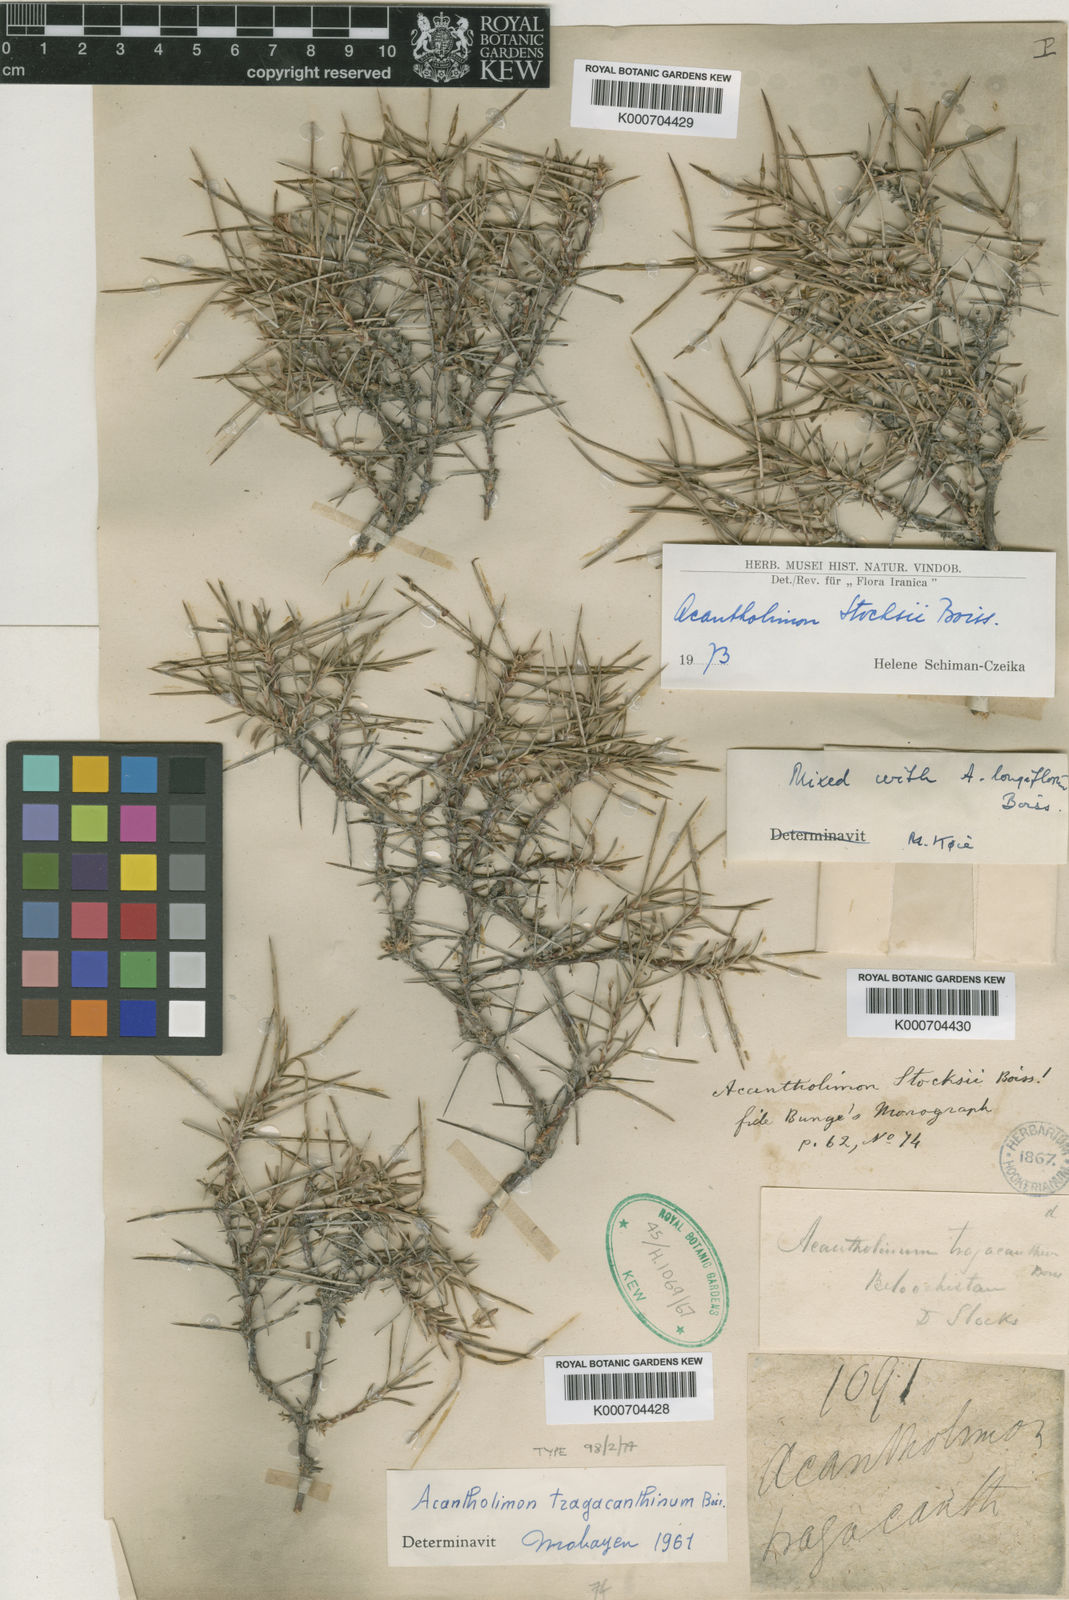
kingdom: Plantae
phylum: Tracheophyta
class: Magnoliopsida
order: Caryophyllales
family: Plumbaginaceae
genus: Acantholimon
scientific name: Acantholimon stocksii
